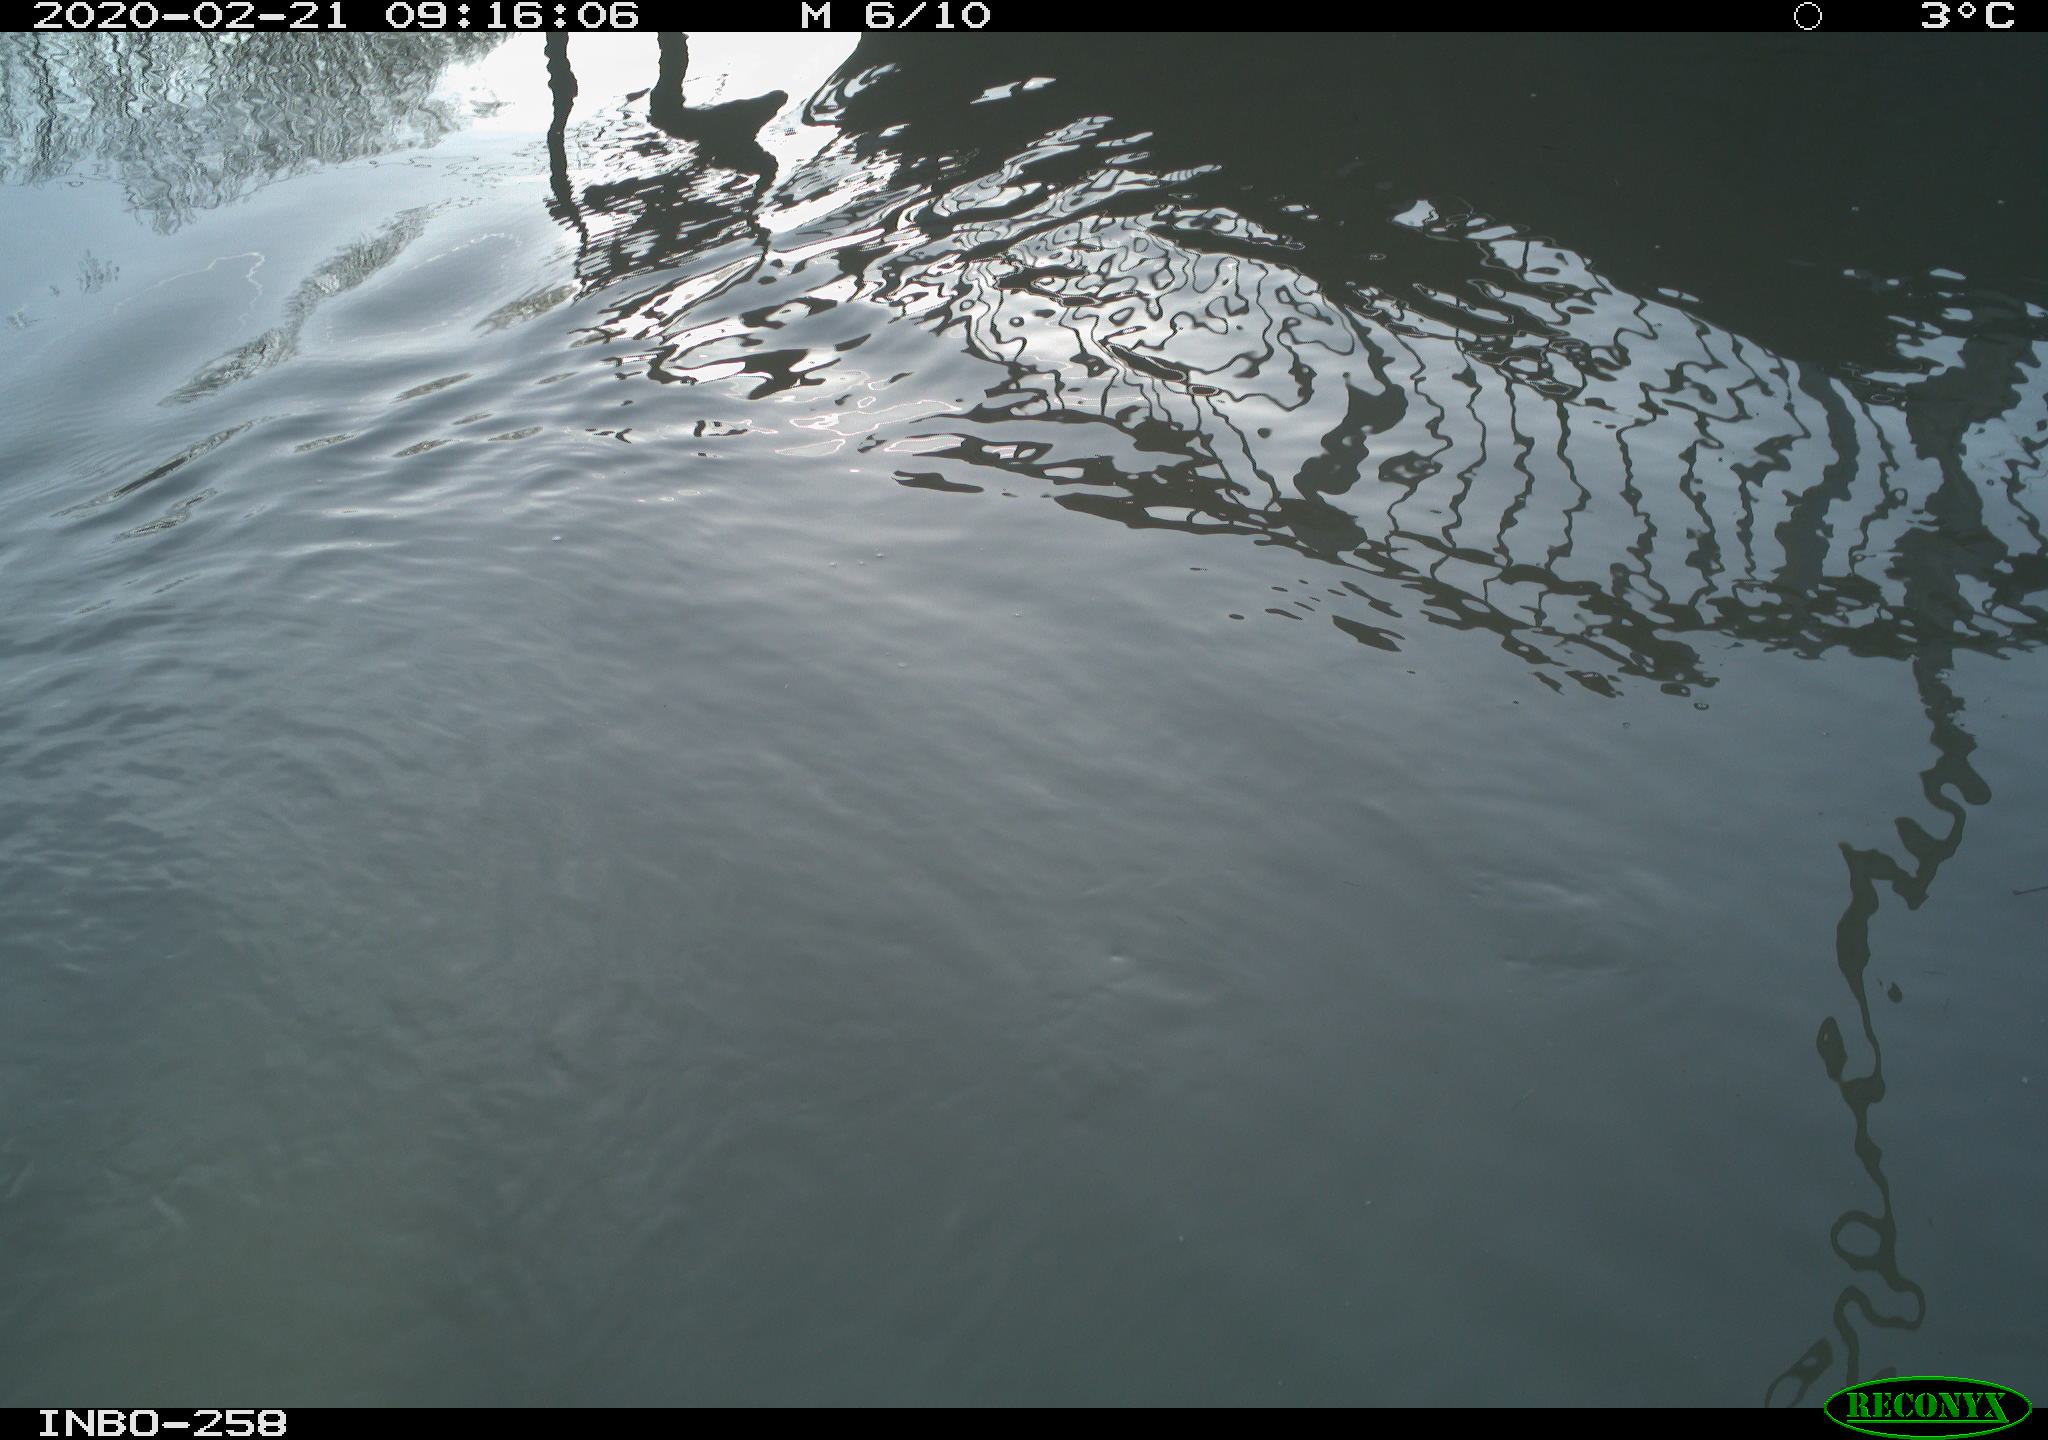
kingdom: Animalia
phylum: Chordata
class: Aves
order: Anseriformes
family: Anatidae
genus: Anas
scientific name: Anas platyrhynchos
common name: Mallard
